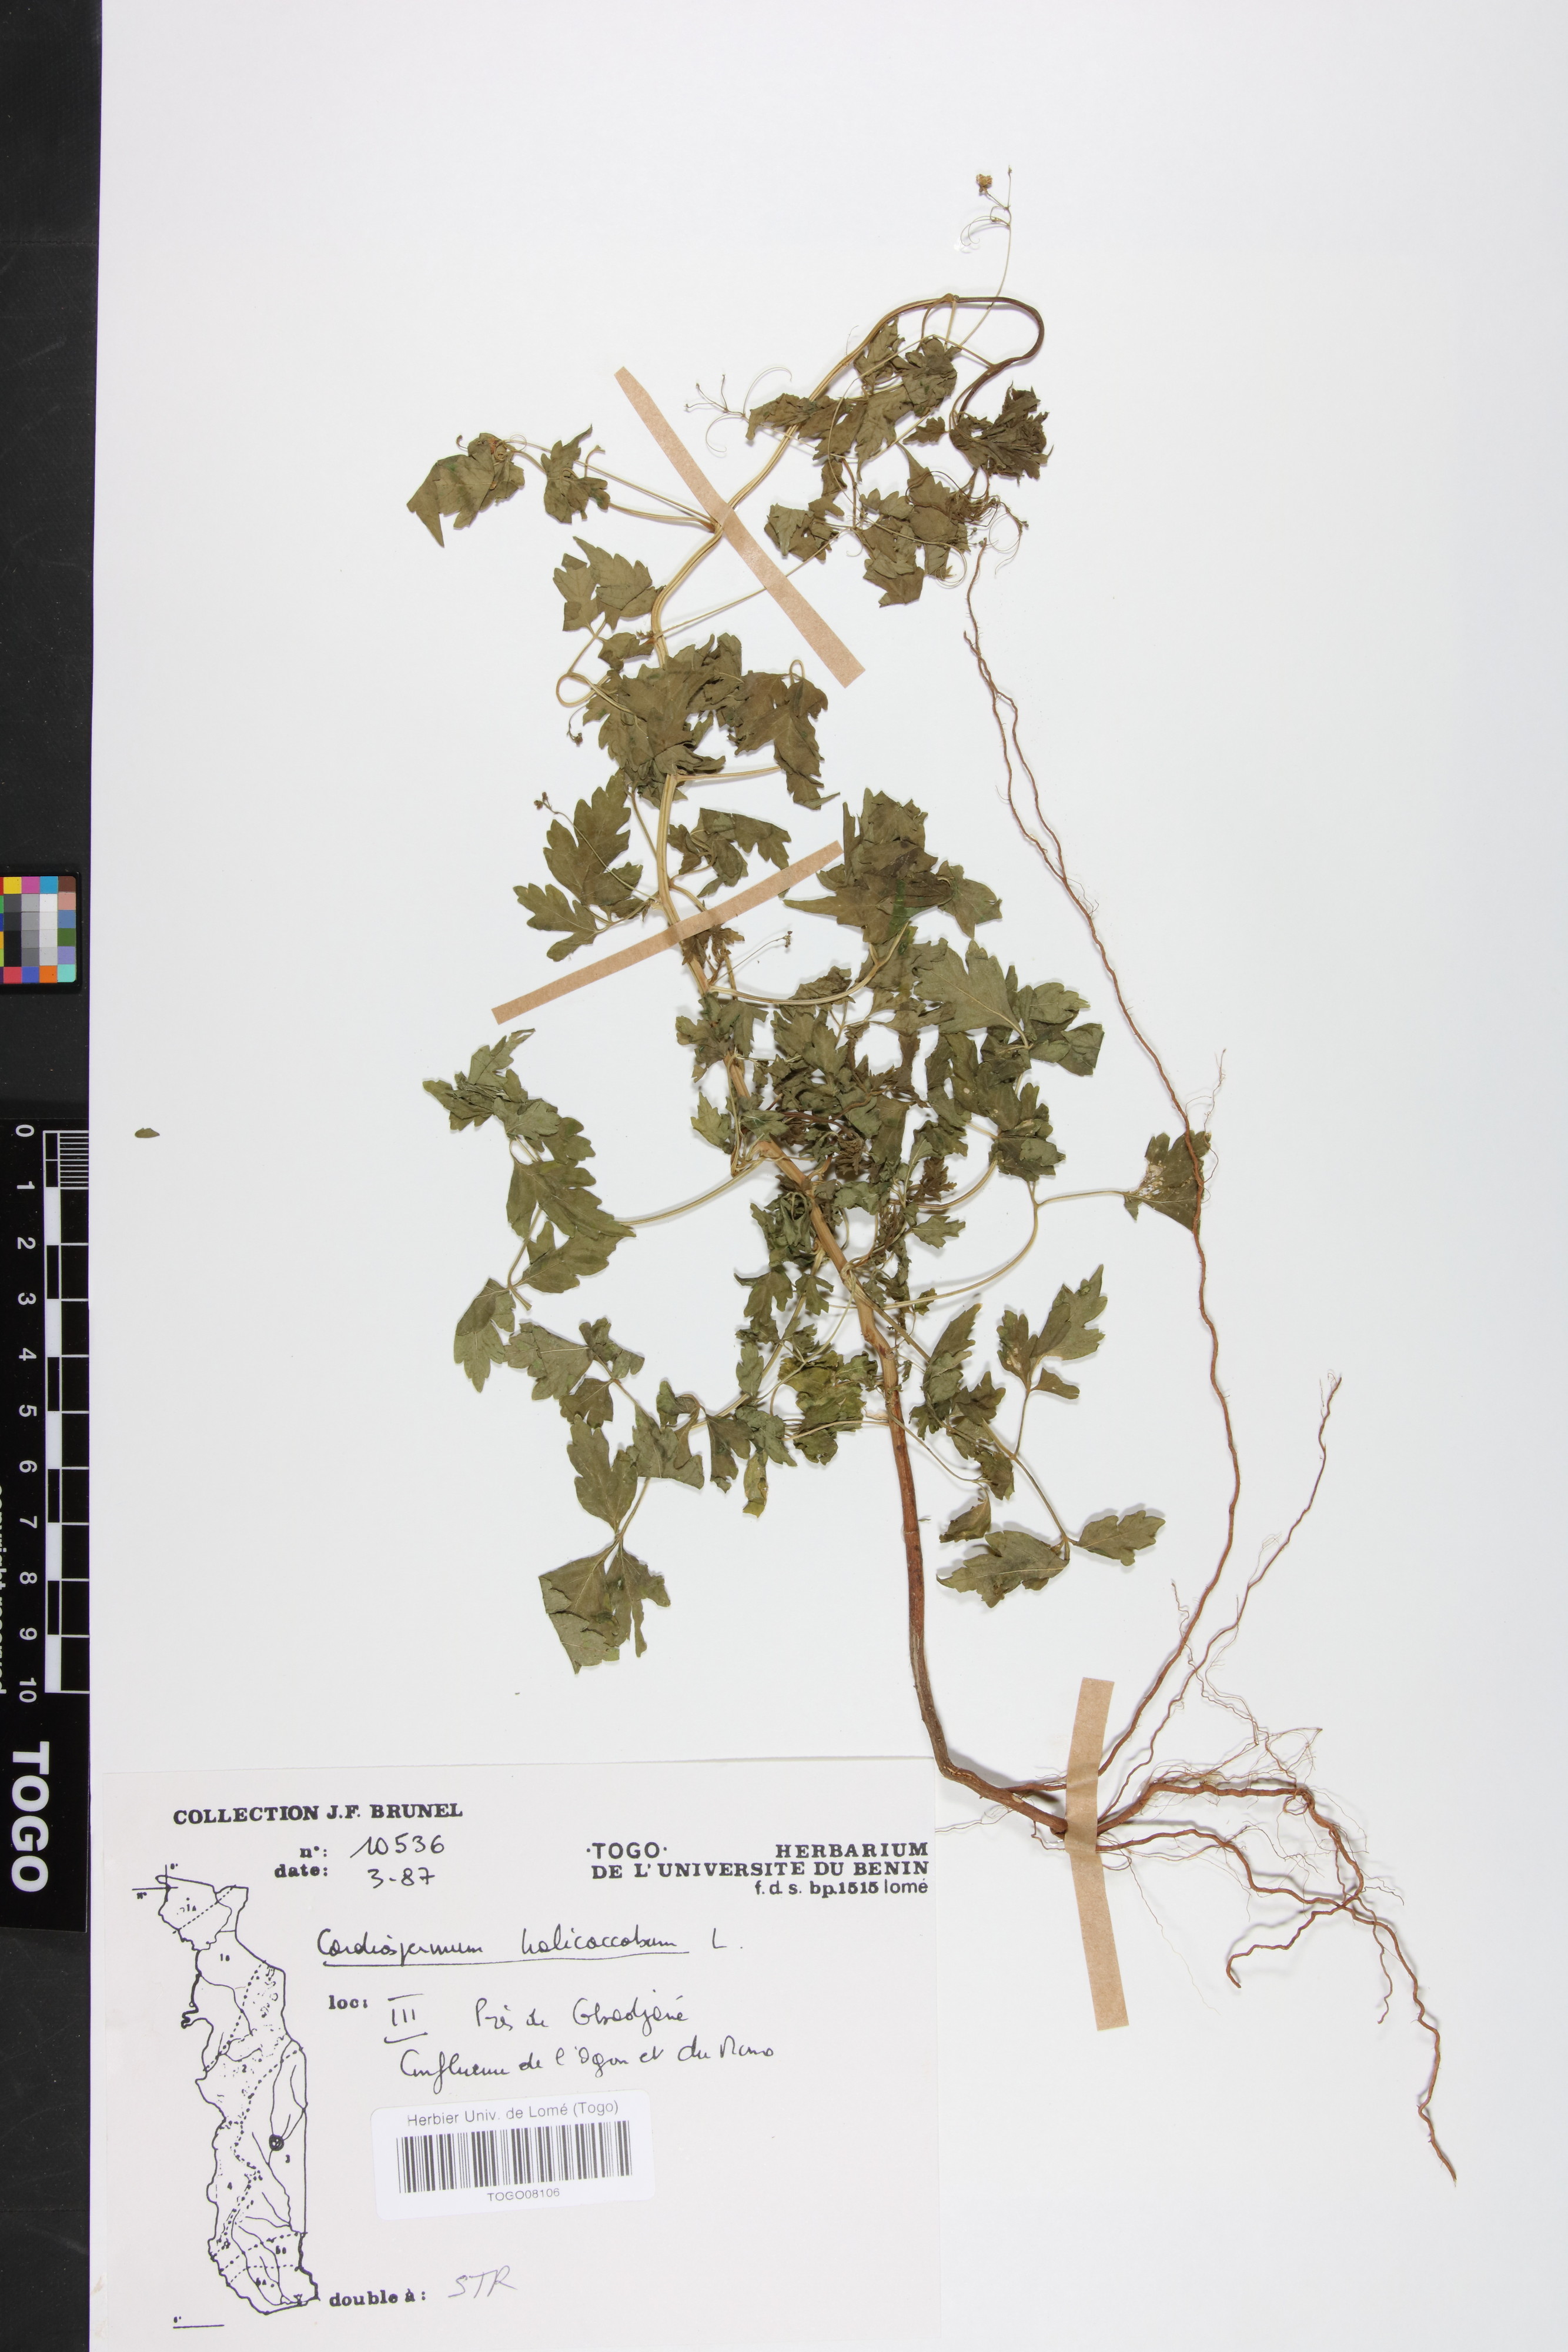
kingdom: Plantae
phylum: Tracheophyta
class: Magnoliopsida
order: Sapindales
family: Sapindaceae
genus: Cardiospermum
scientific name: Cardiospermum halicacabum
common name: Balloon vine
